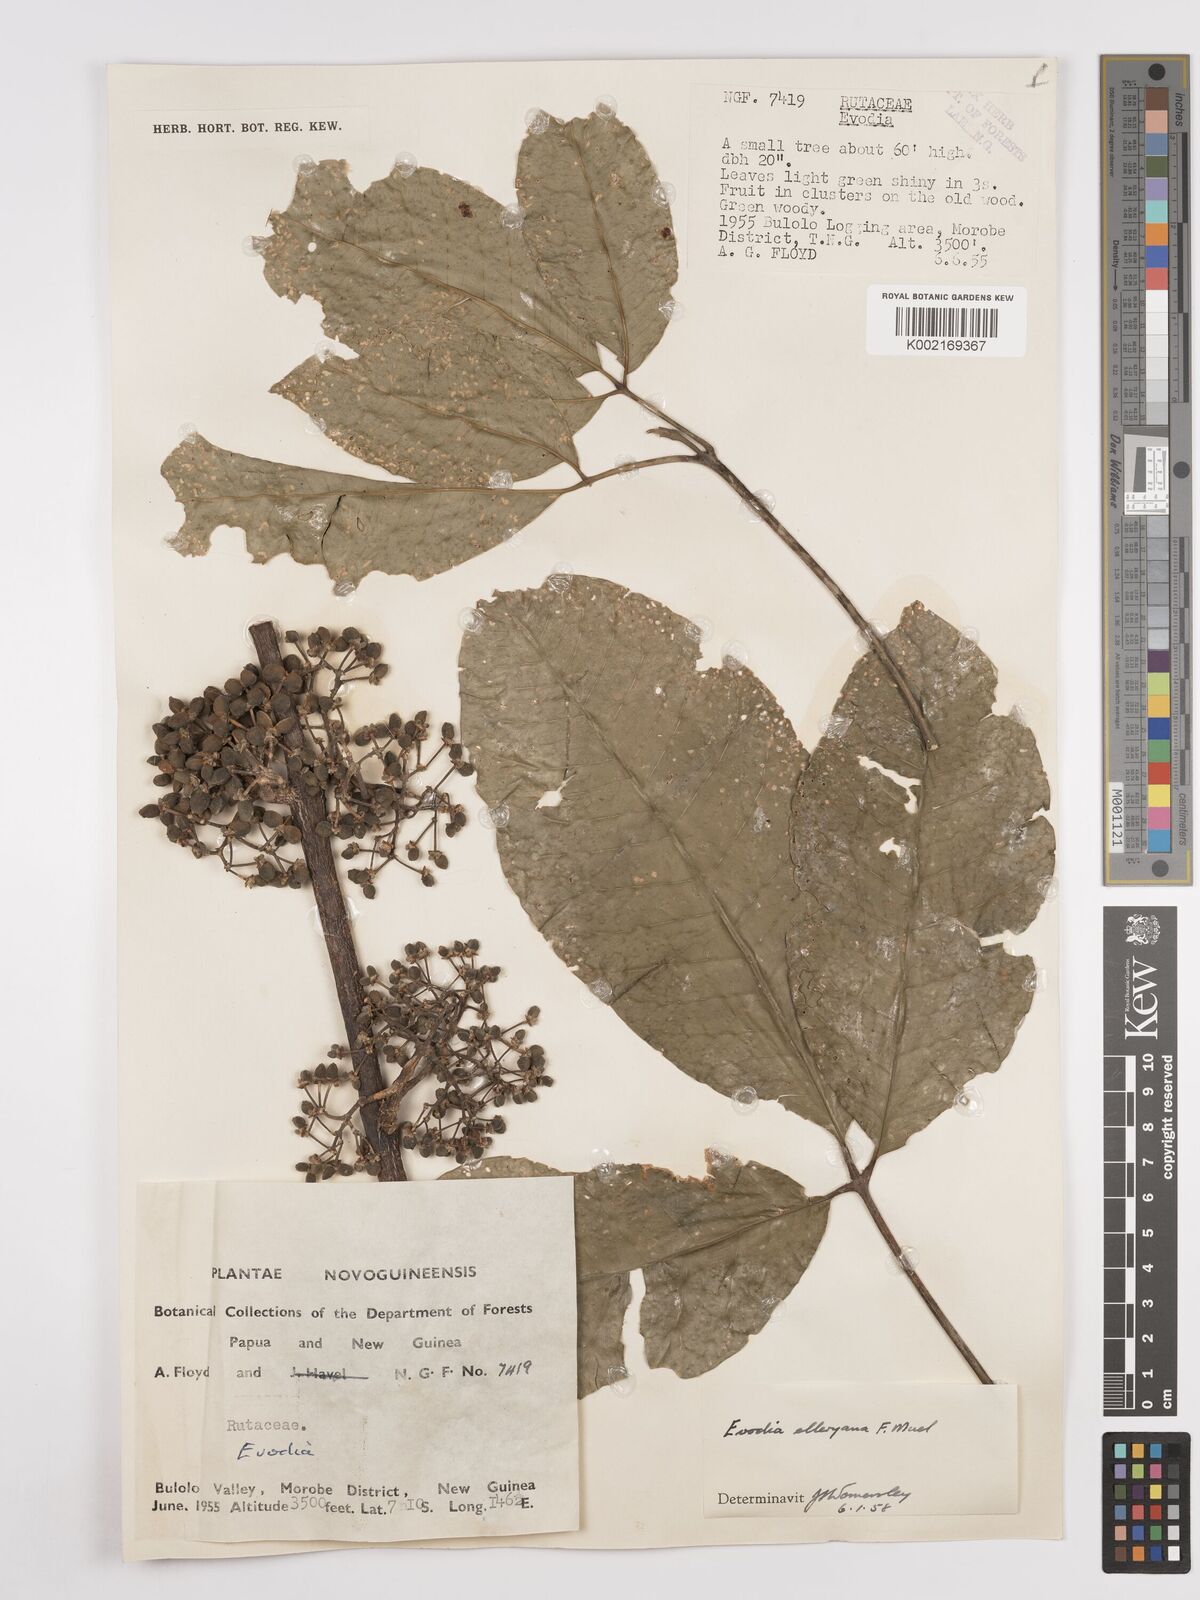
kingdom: Plantae
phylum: Tracheophyta
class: Magnoliopsida
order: Sapindales
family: Rutaceae
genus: Melicope
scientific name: Melicope elleryana
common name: Pink euodia
